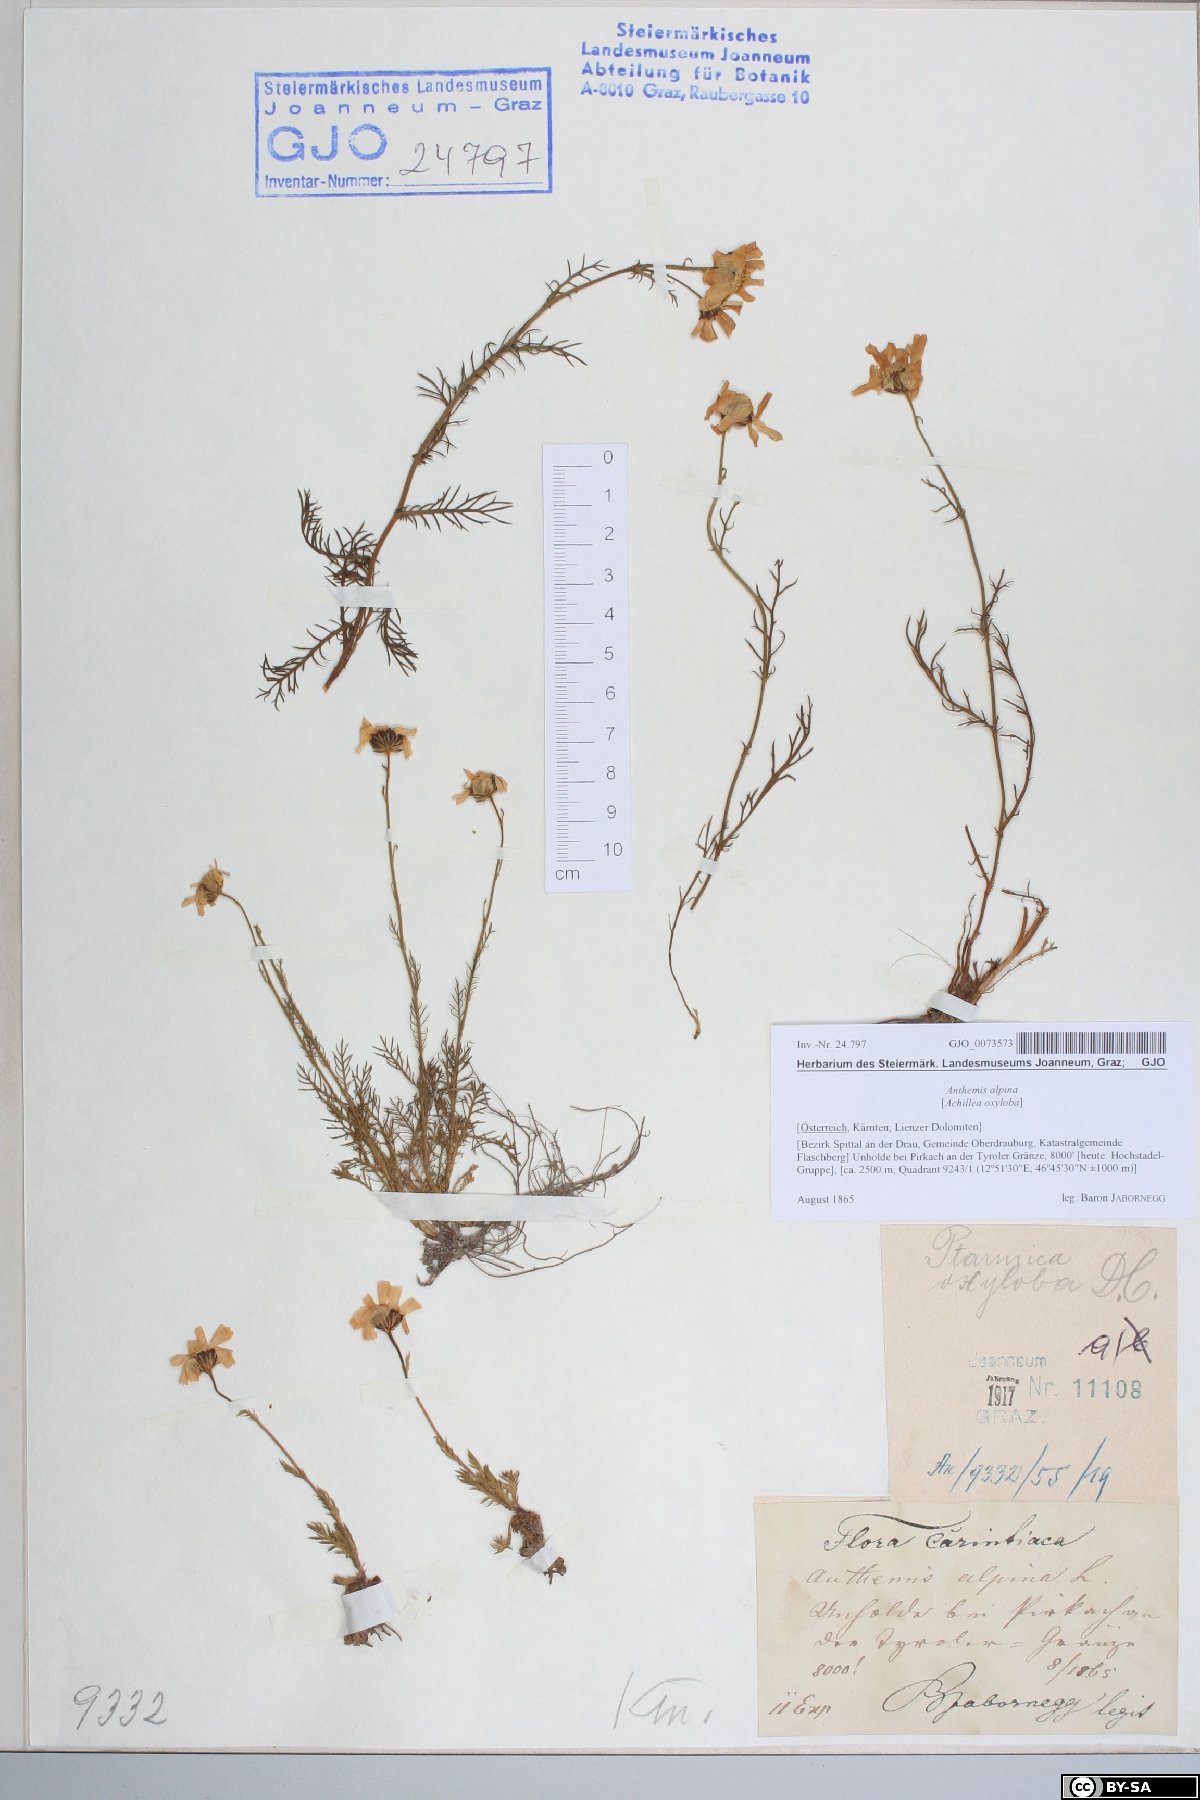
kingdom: Plantae
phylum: Tracheophyta
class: Magnoliopsida
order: Asterales
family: Asteraceae
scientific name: Asteraceae
